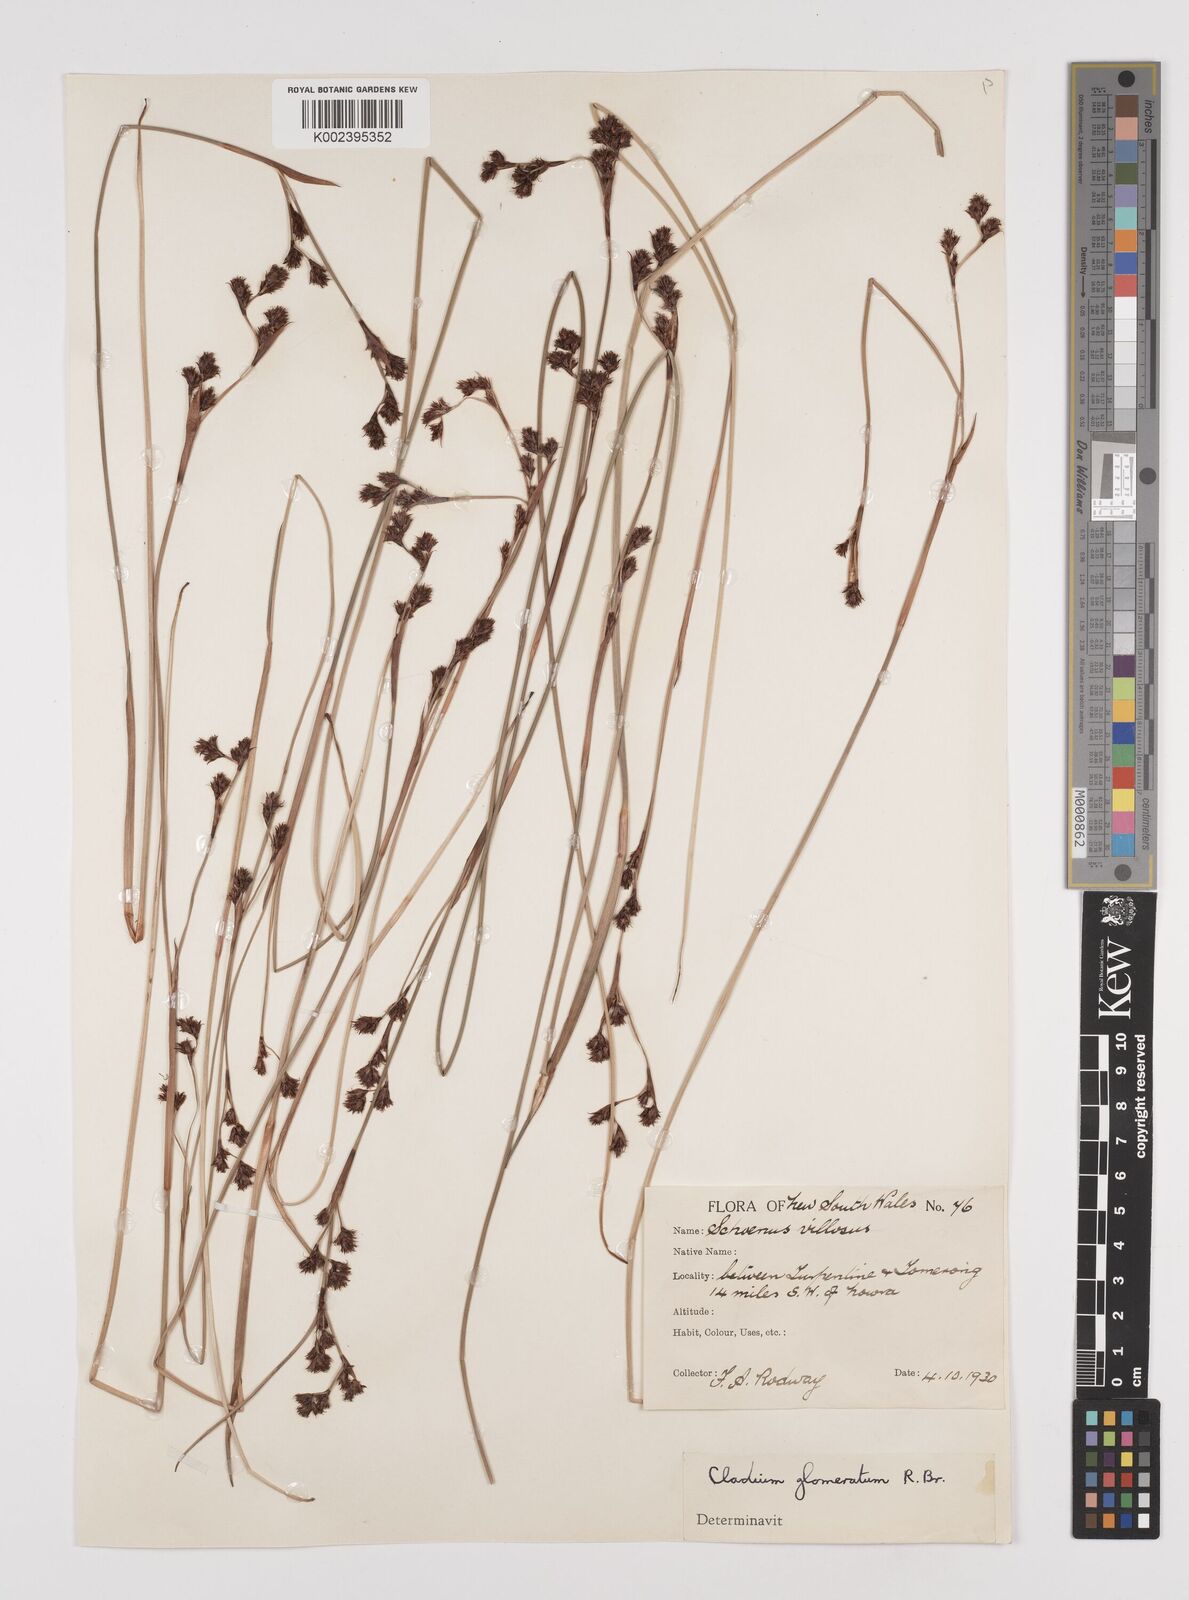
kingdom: Plantae
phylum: Tracheophyta
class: Liliopsida
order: Poales
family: Cyperaceae
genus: Machaerina
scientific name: Machaerina rubiginosa
